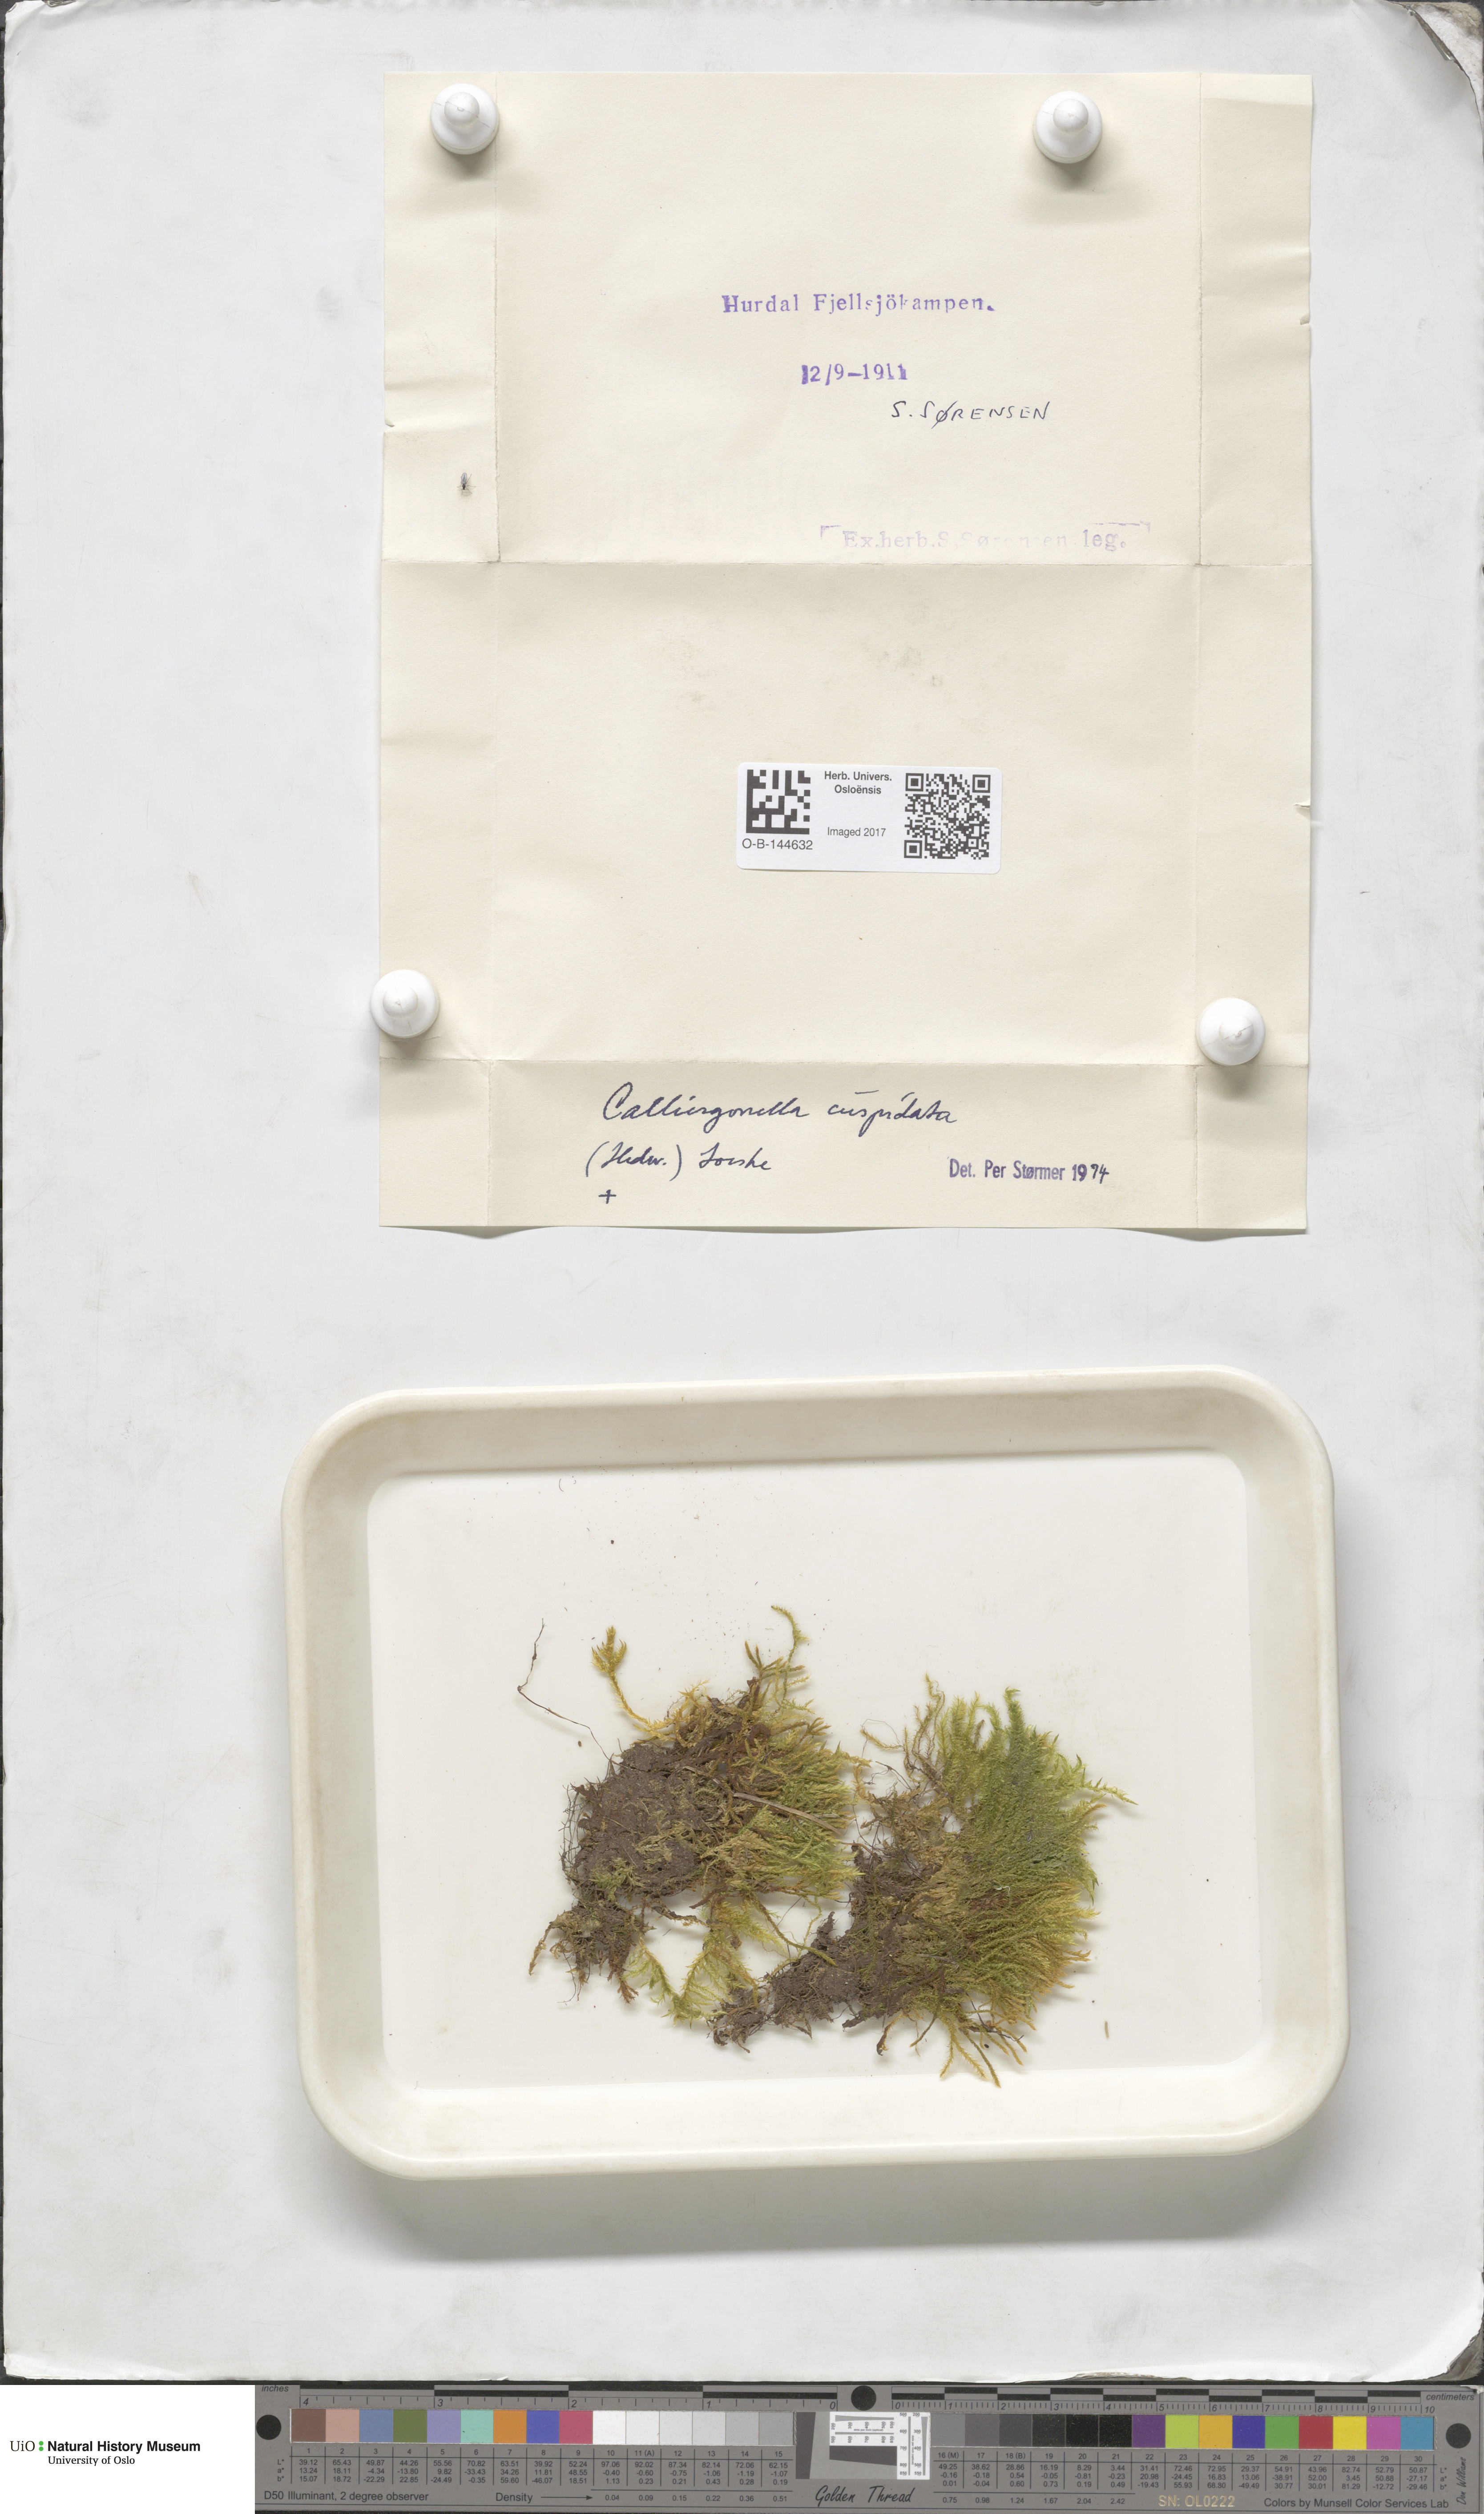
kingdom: Plantae
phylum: Bryophyta
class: Bryopsida
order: Hypnales
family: Pylaisiaceae
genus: Calliergonella
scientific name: Calliergonella cuspidata
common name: Common large wetland moss
